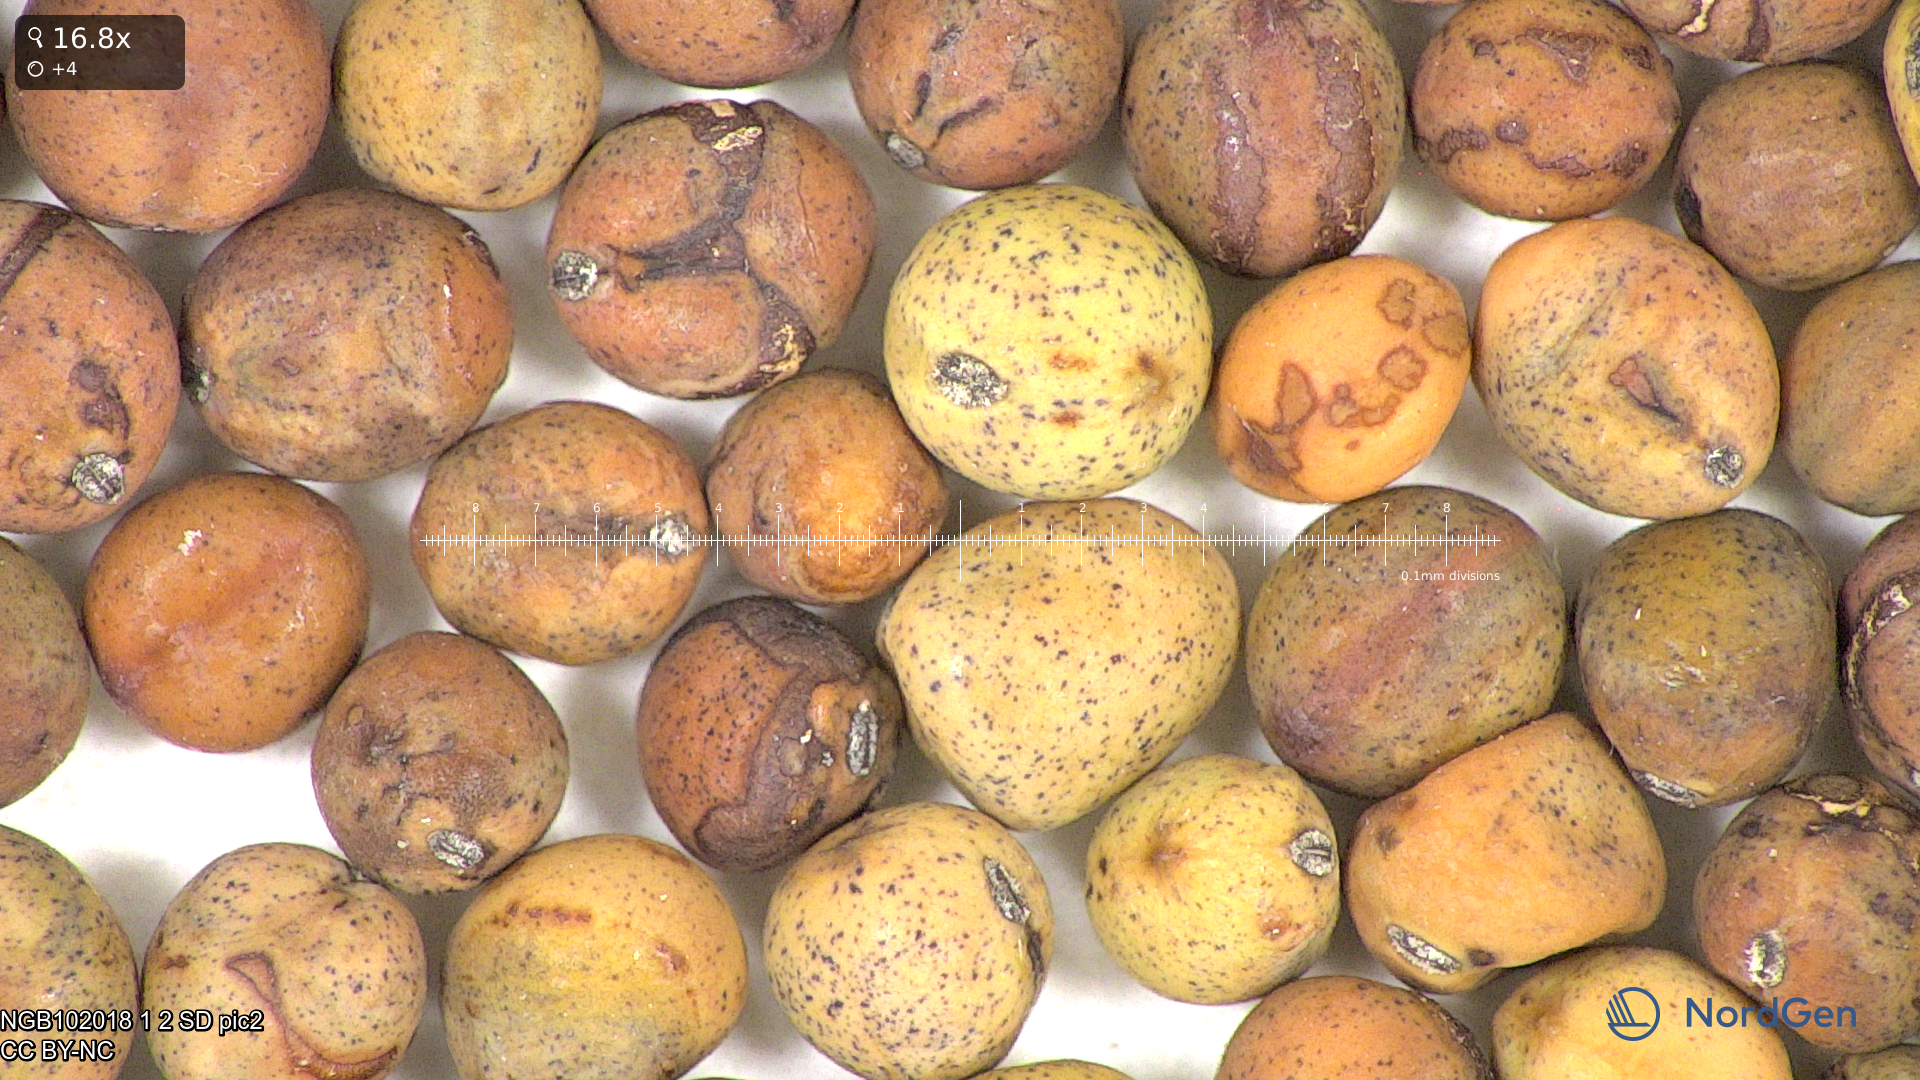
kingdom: Plantae
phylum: Tracheophyta
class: Magnoliopsida
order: Fabales
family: Fabaceae
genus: Lathyrus
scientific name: Lathyrus oleraceus
